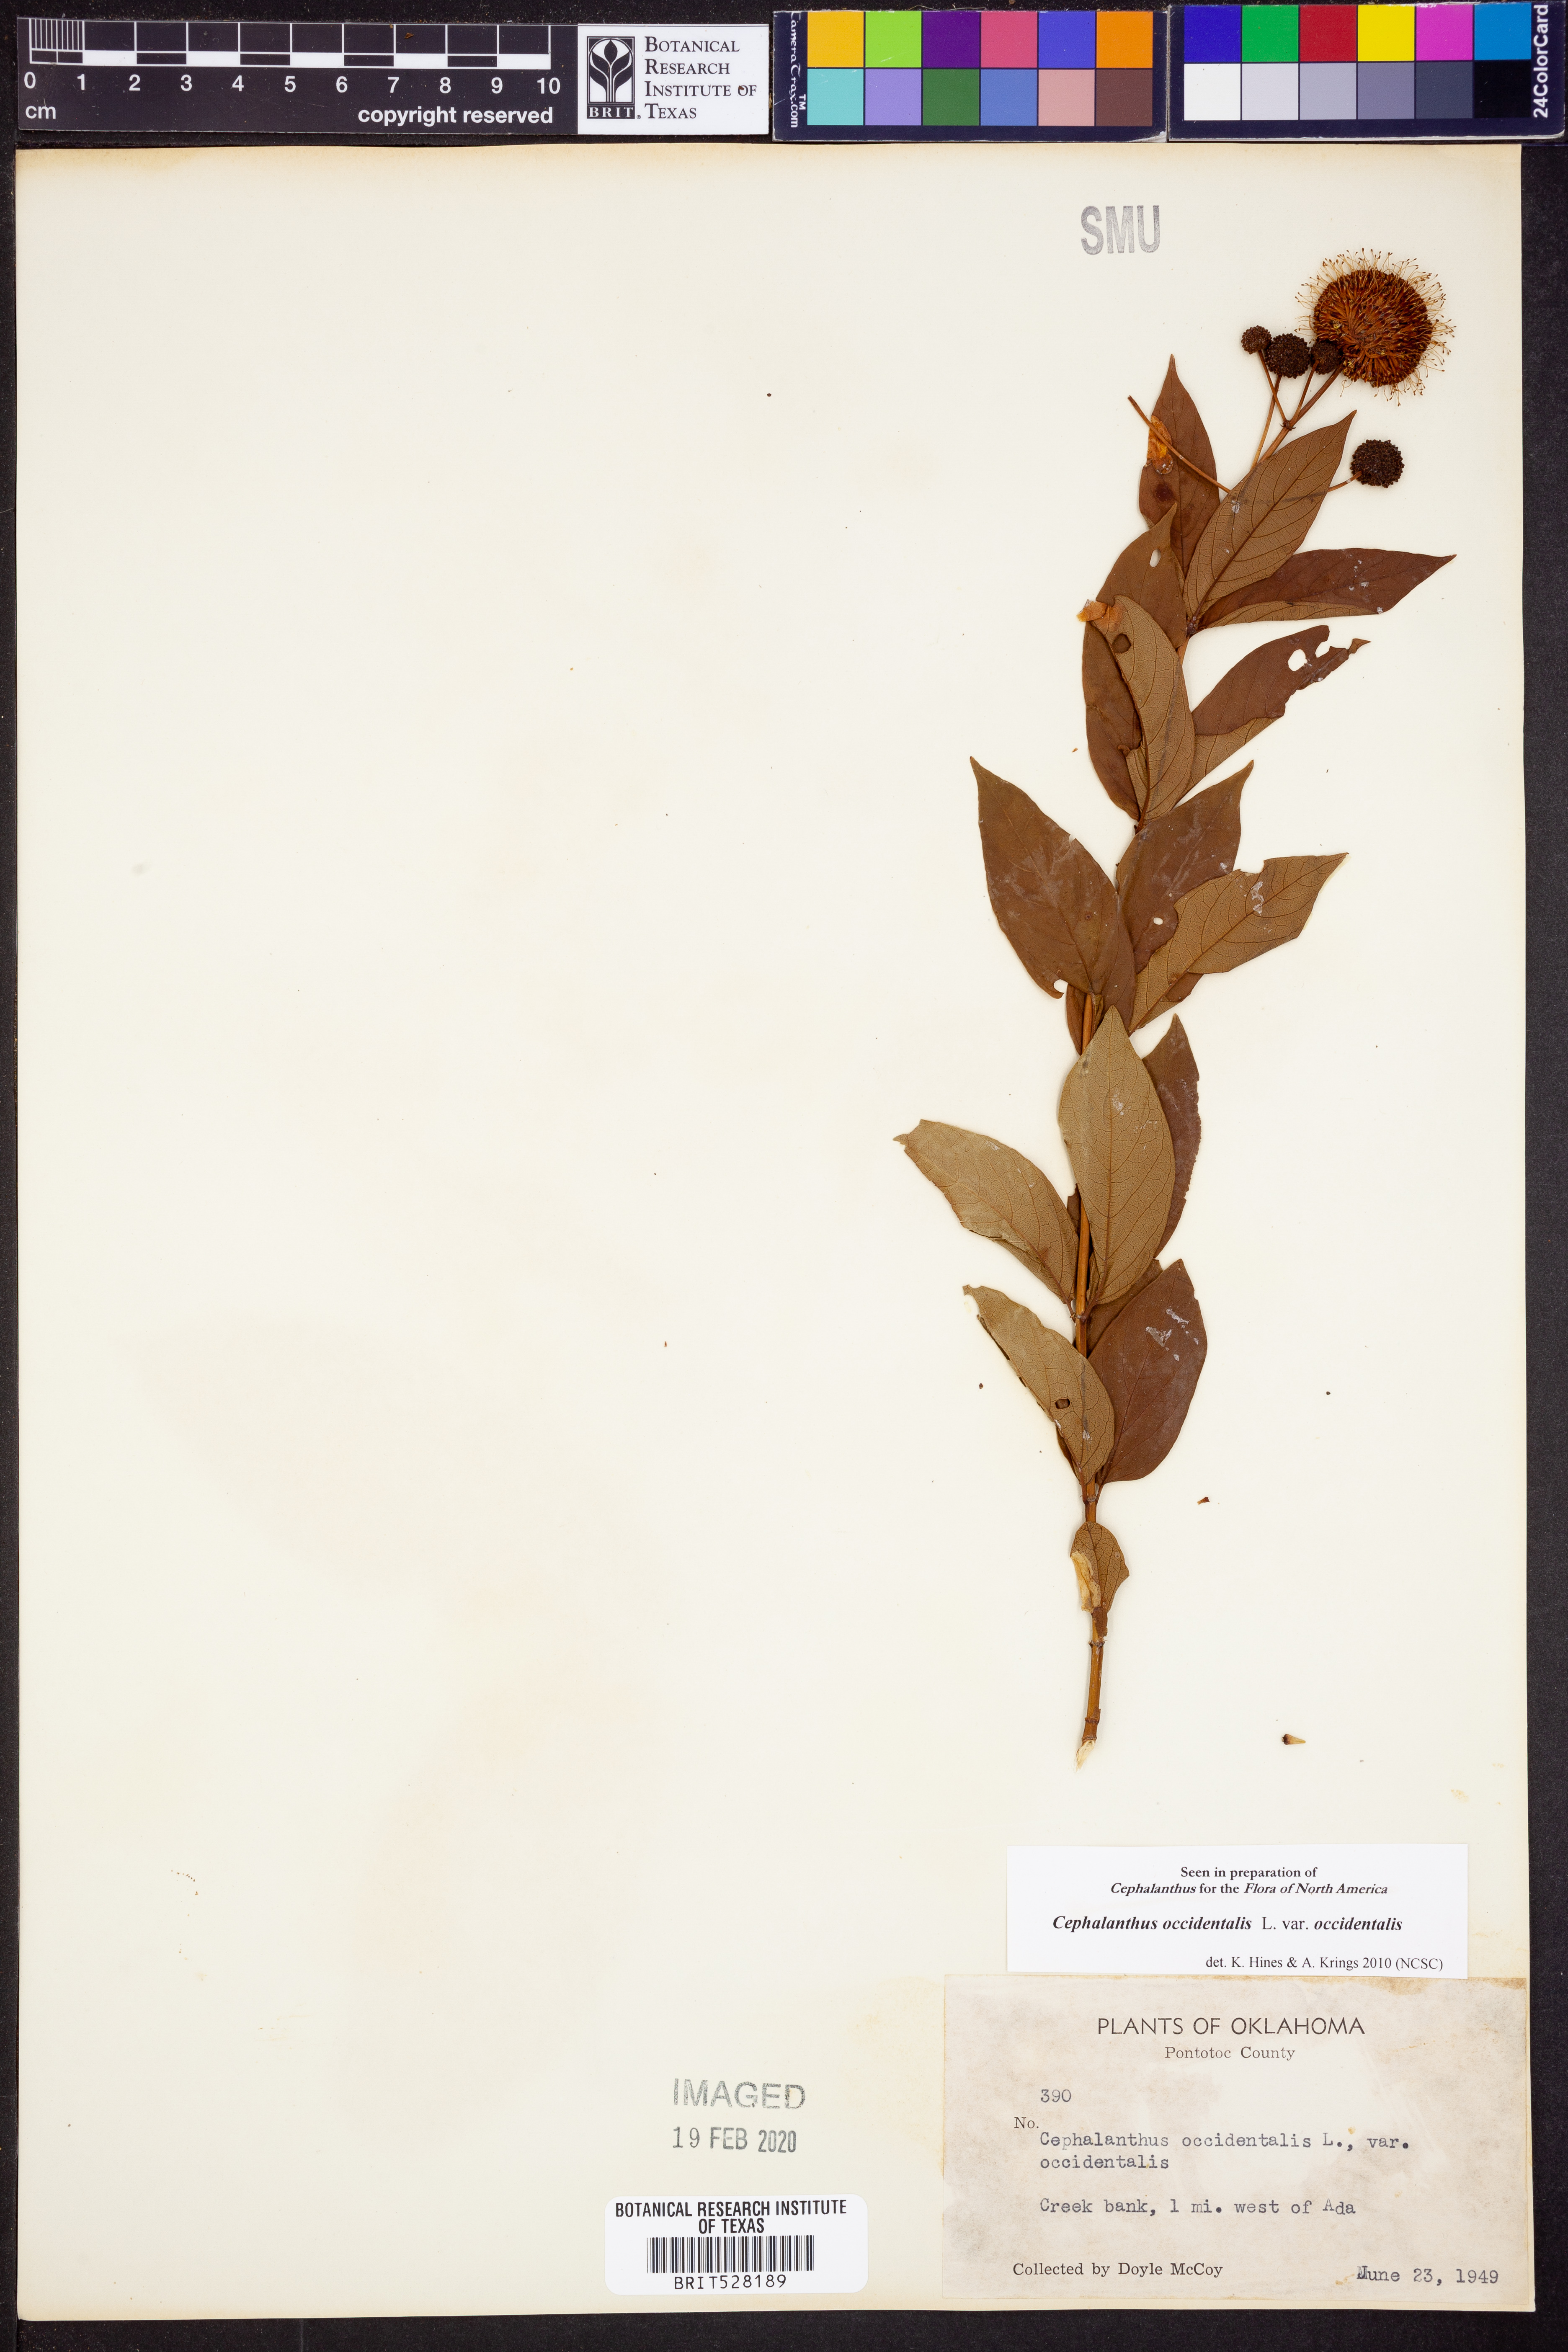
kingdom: Plantae
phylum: Tracheophyta
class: Magnoliopsida
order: Gentianales
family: Rubiaceae
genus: Cephalanthus
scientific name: Cephalanthus occidentalis
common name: Button-willow
